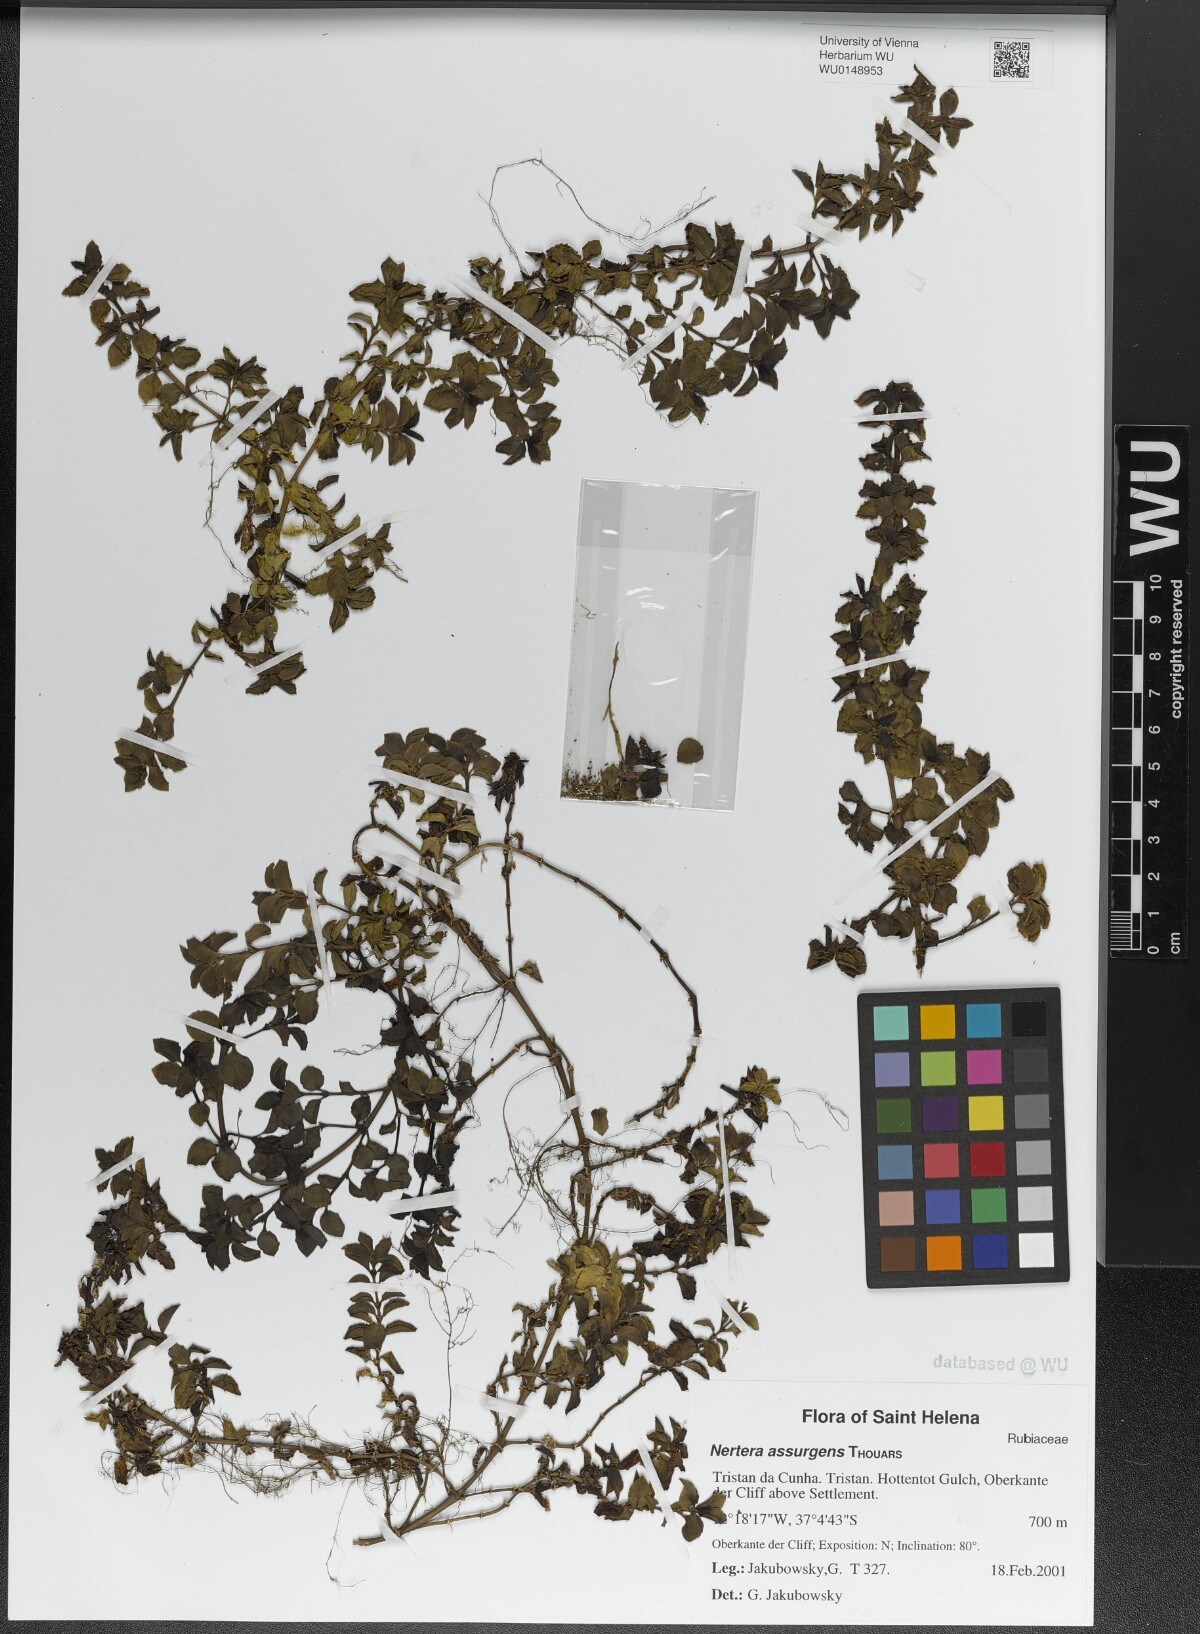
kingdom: Plantae
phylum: Tracheophyta
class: Magnoliopsida
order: Gentianales
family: Rubiaceae
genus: Nertera
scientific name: Nertera granadensis
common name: Beadplant
